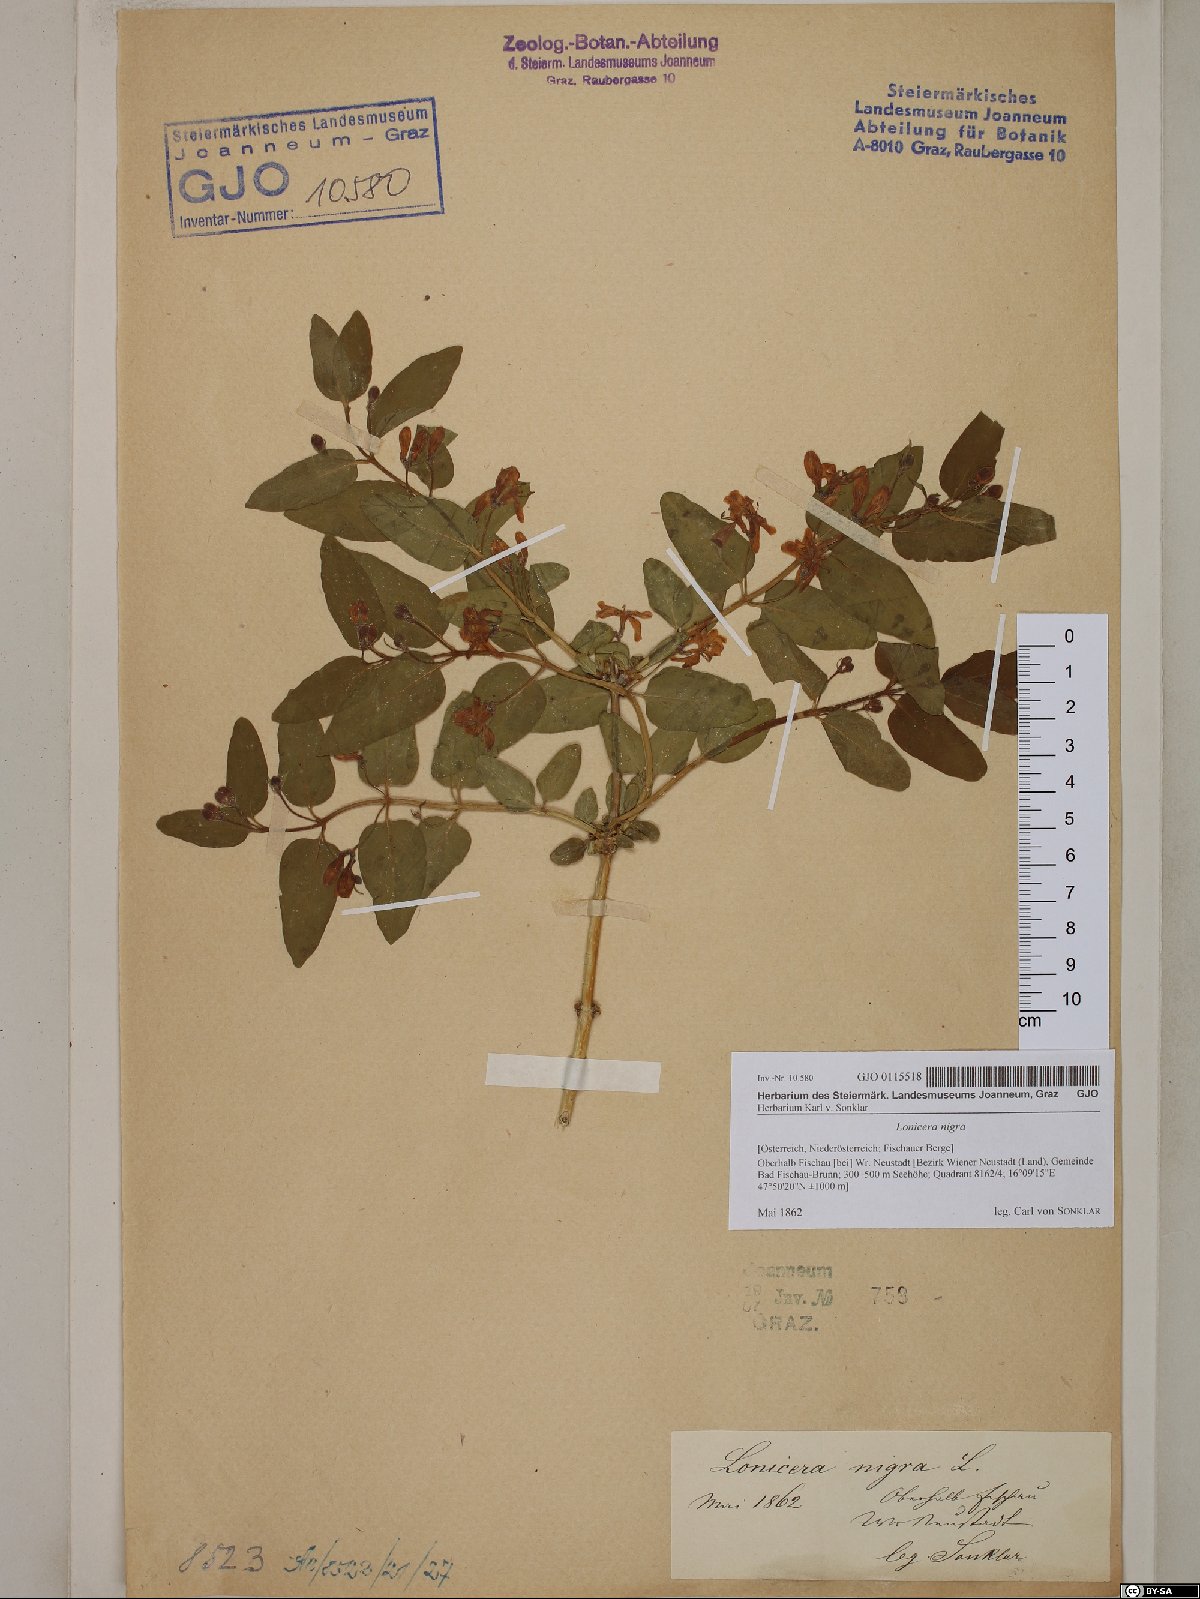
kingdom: Plantae
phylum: Tracheophyta
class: Magnoliopsida
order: Dipsacales
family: Caprifoliaceae
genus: Lonicera
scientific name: Lonicera nigra
